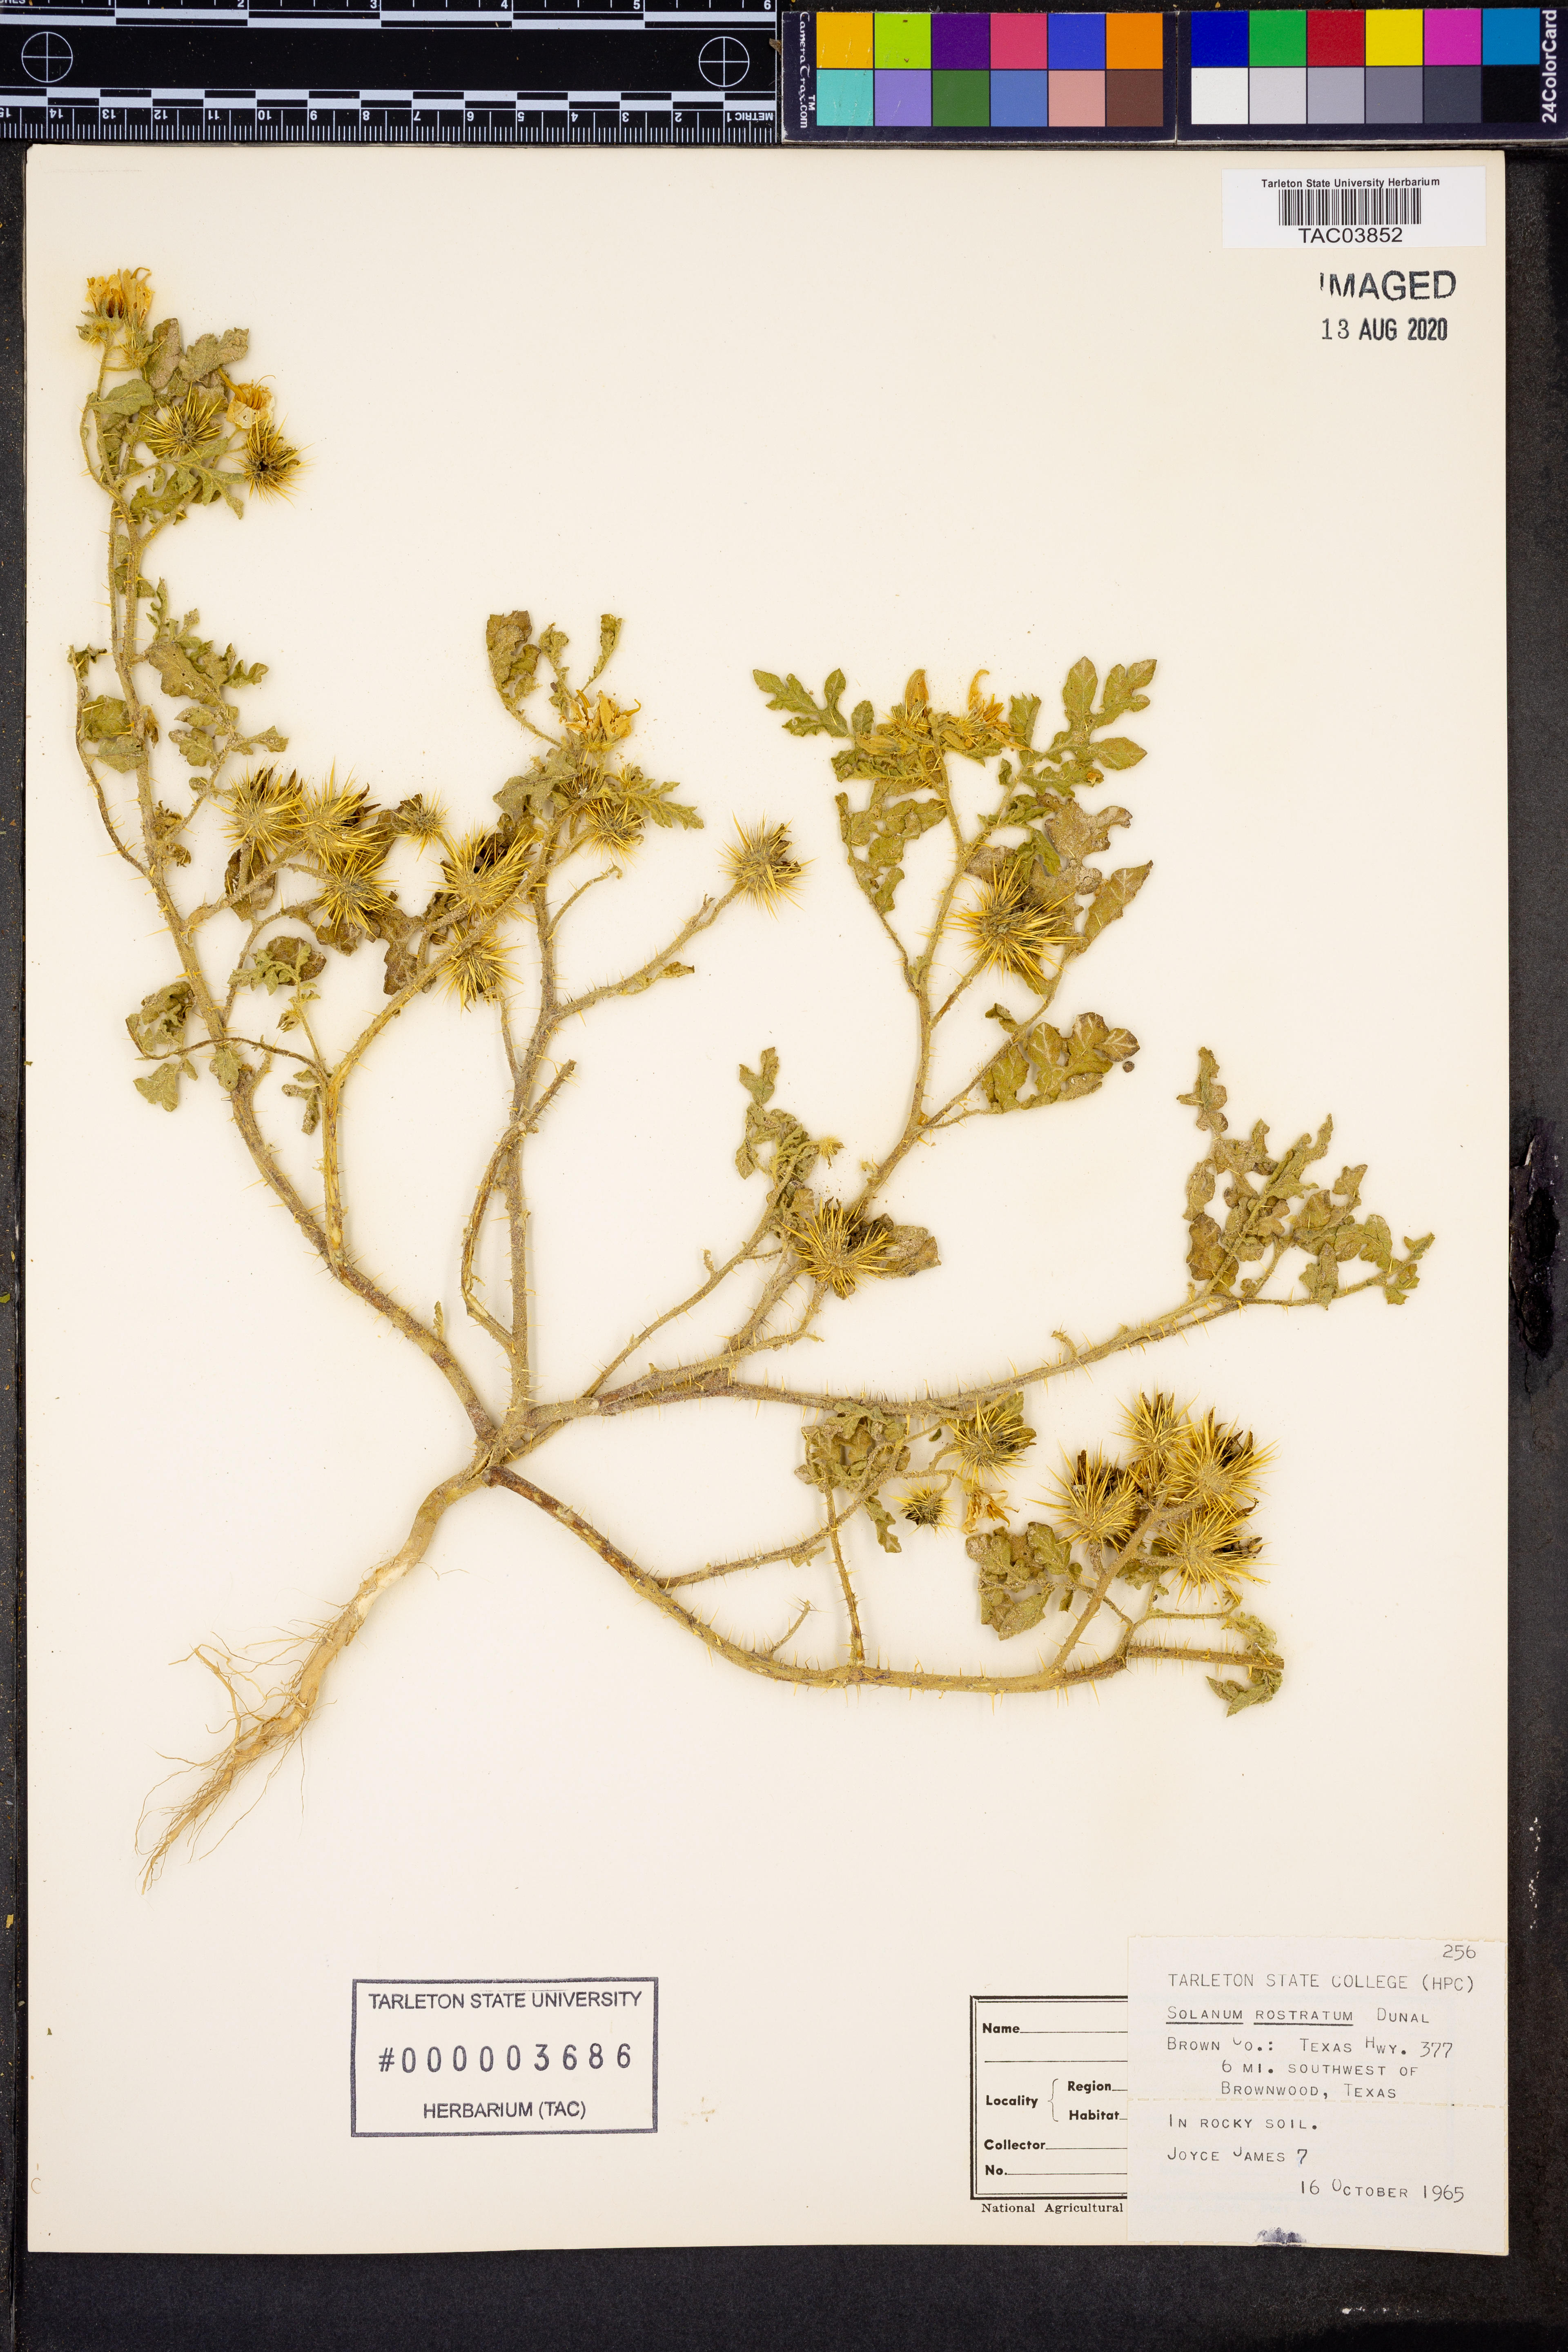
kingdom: Plantae
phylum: Tracheophyta
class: Magnoliopsida
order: Solanales
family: Solanaceae
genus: Solanum
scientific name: Solanum angustifolium
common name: Buffalobur nightshade
